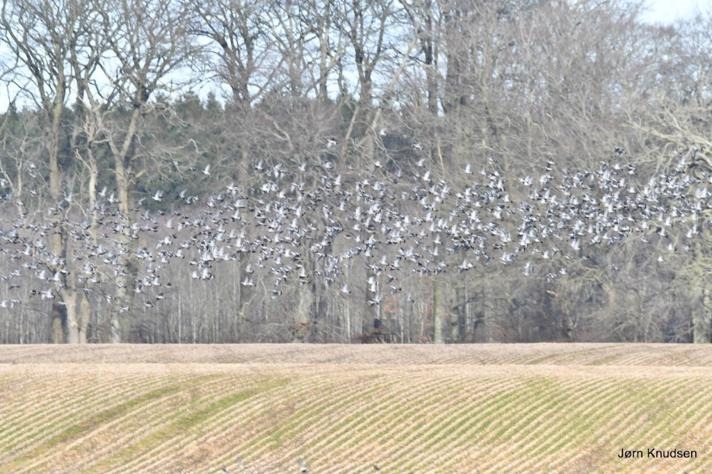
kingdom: Animalia
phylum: Chordata
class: Aves
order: Columbiformes
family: Columbidae
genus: Columba
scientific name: Columba palumbus
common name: Ringdue
